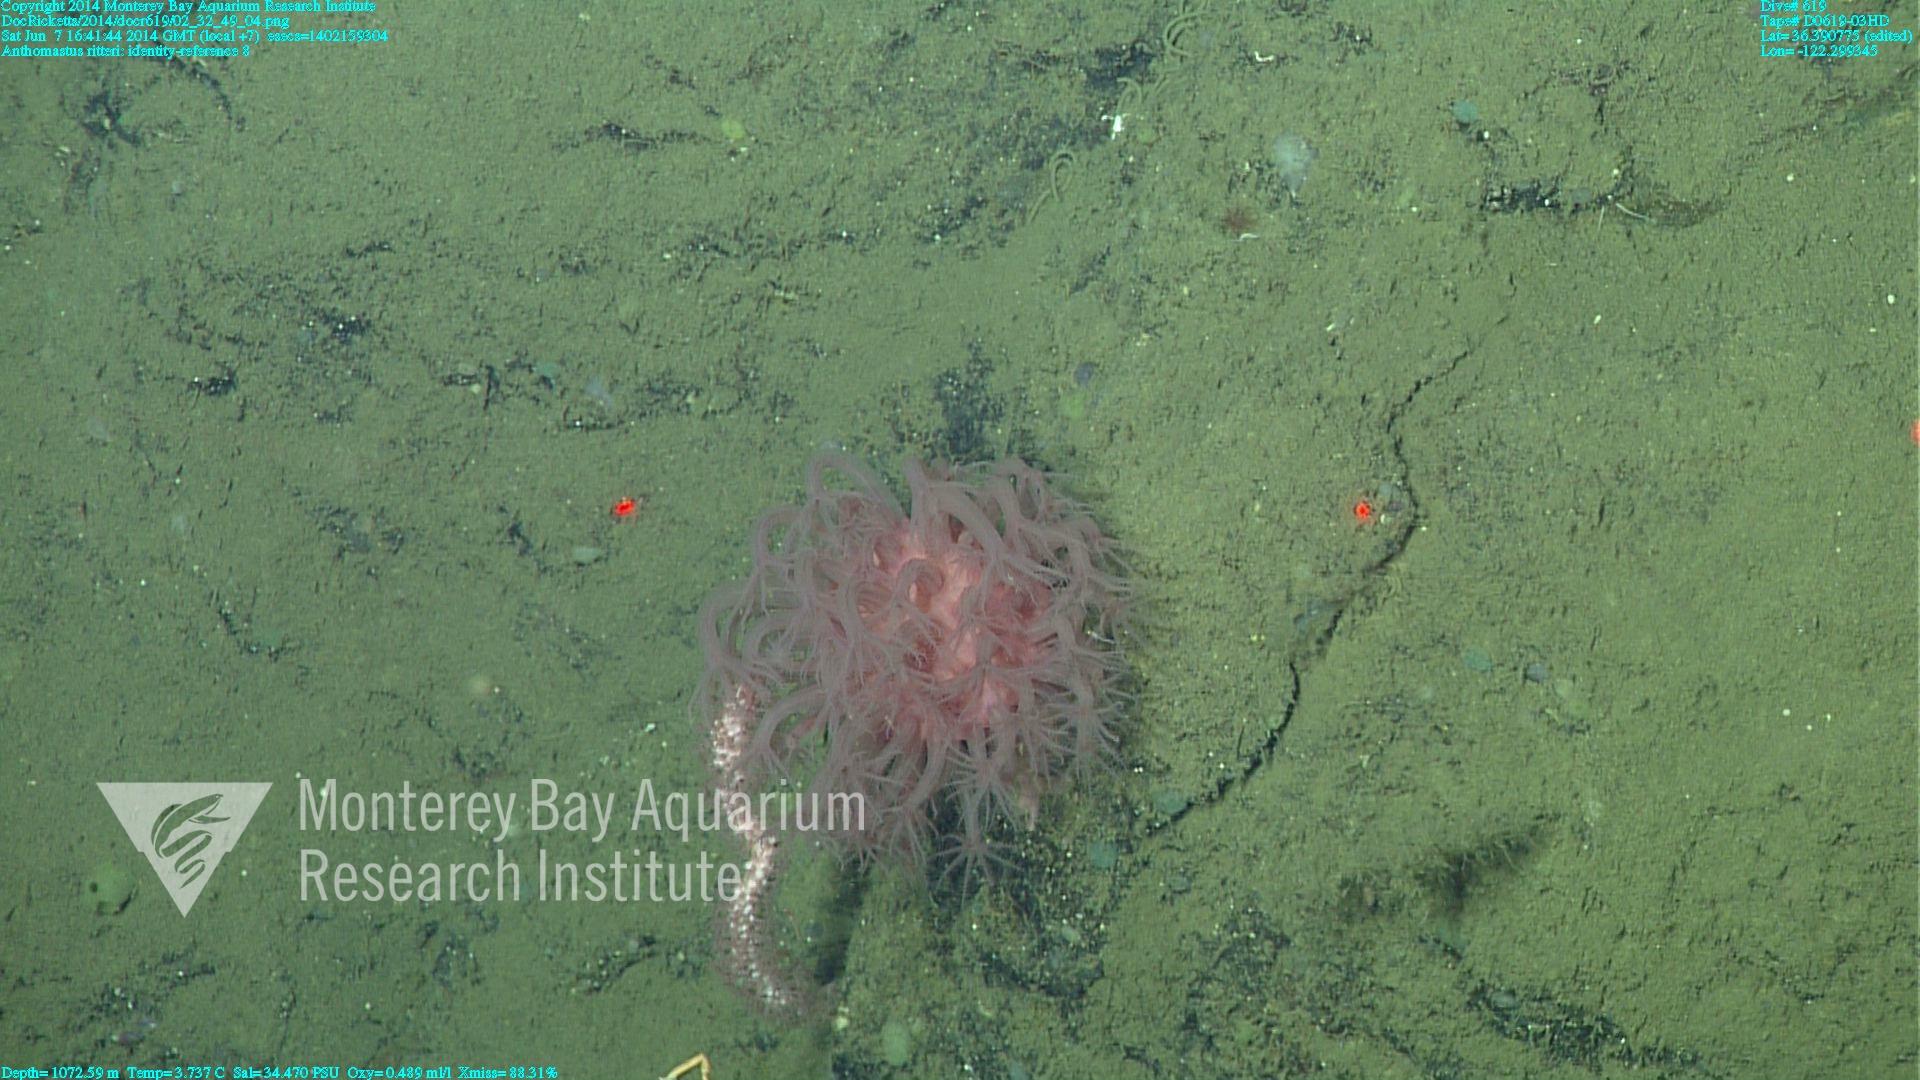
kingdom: Animalia
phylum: Cnidaria
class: Anthozoa
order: Scleralcyonacea
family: Coralliidae
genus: Heteropolypus
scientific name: Heteropolypus ritteri
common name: Ritter's soft coral
